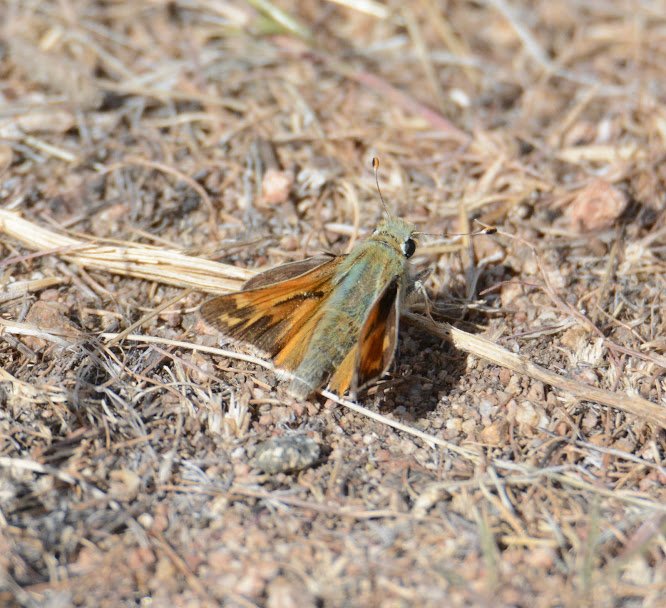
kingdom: Animalia
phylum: Arthropoda
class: Insecta
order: Lepidoptera
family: Hesperiidae
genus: Hesperia
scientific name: Hesperia juba
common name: Juba Skipper
